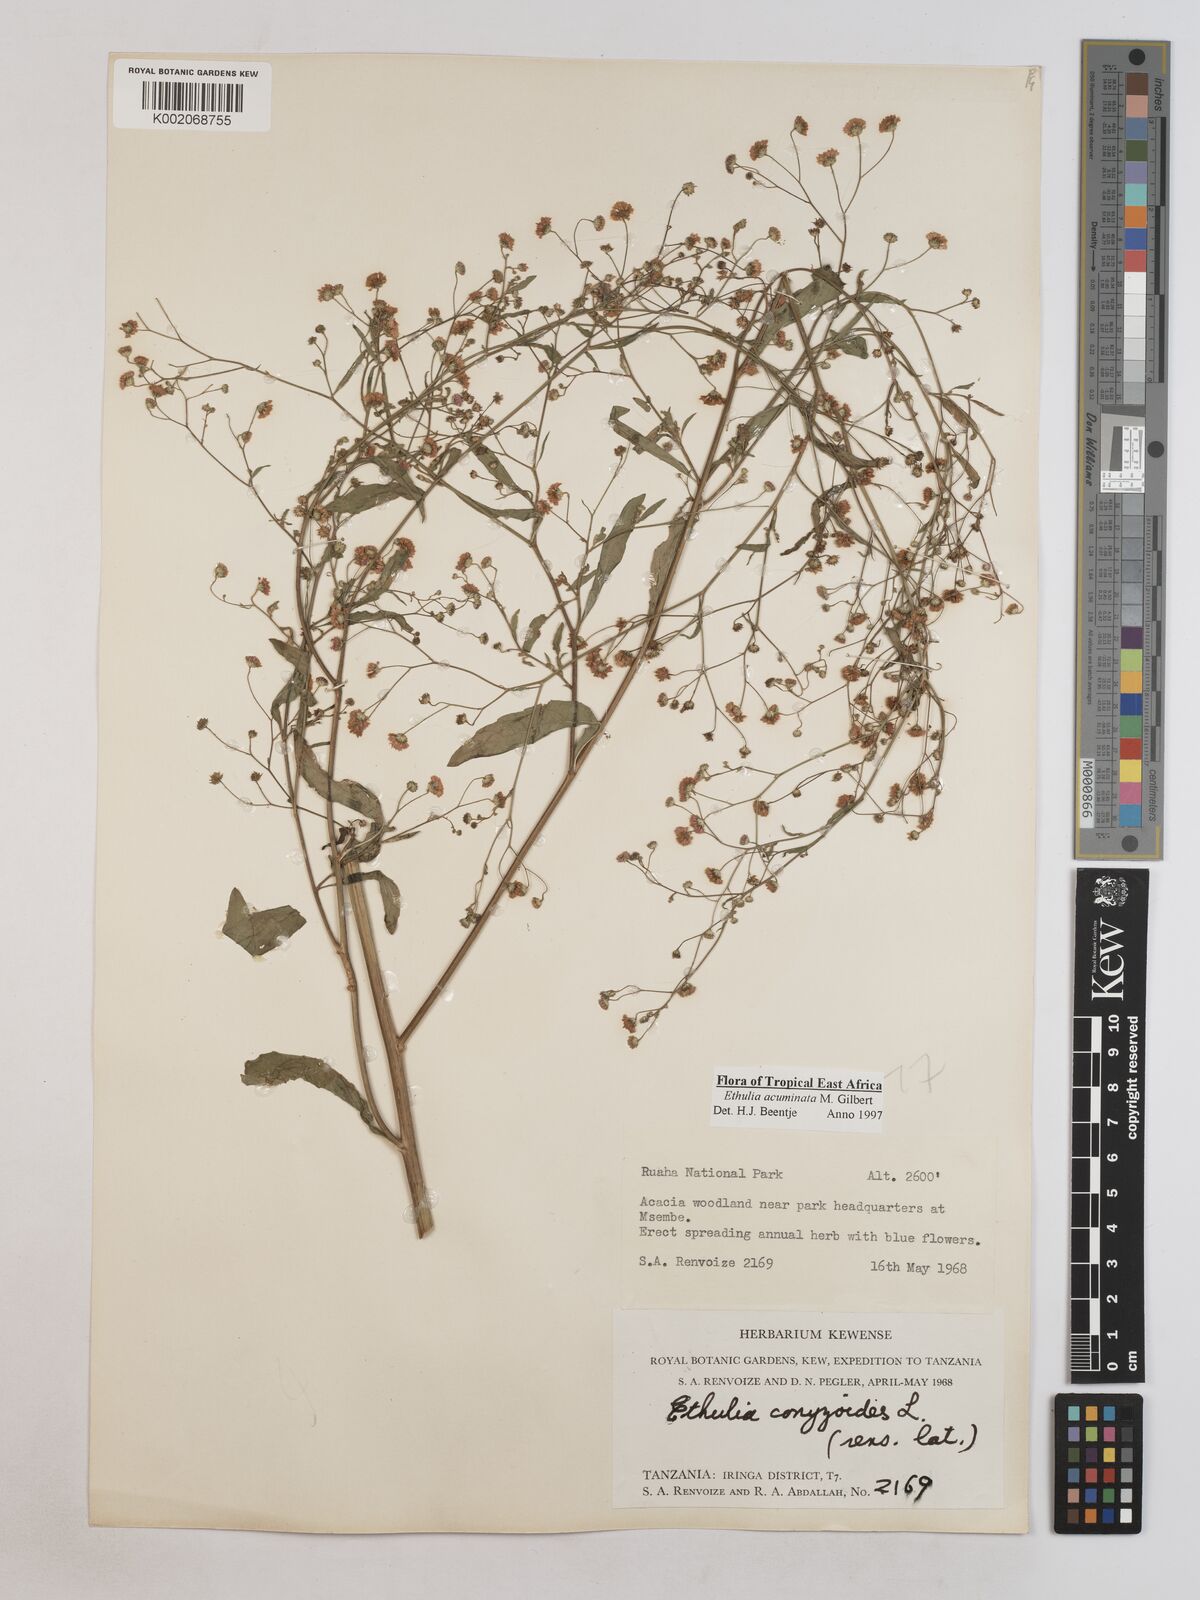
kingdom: Plantae
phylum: Tracheophyta
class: Magnoliopsida
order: Asterales
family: Asteraceae
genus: Ethulia
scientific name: Ethulia acuminata
